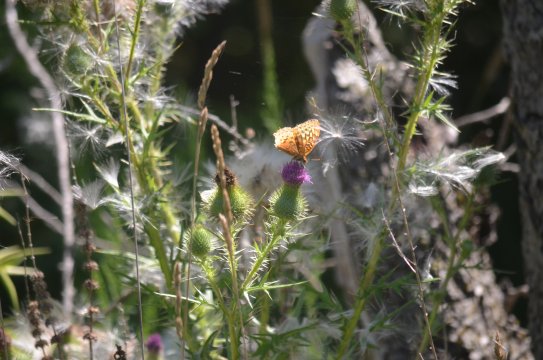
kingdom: Animalia
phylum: Arthropoda
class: Insecta
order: Lepidoptera
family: Nymphalidae
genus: Speyeria
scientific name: Speyeria cybele
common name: Great Spangled Fritillary
